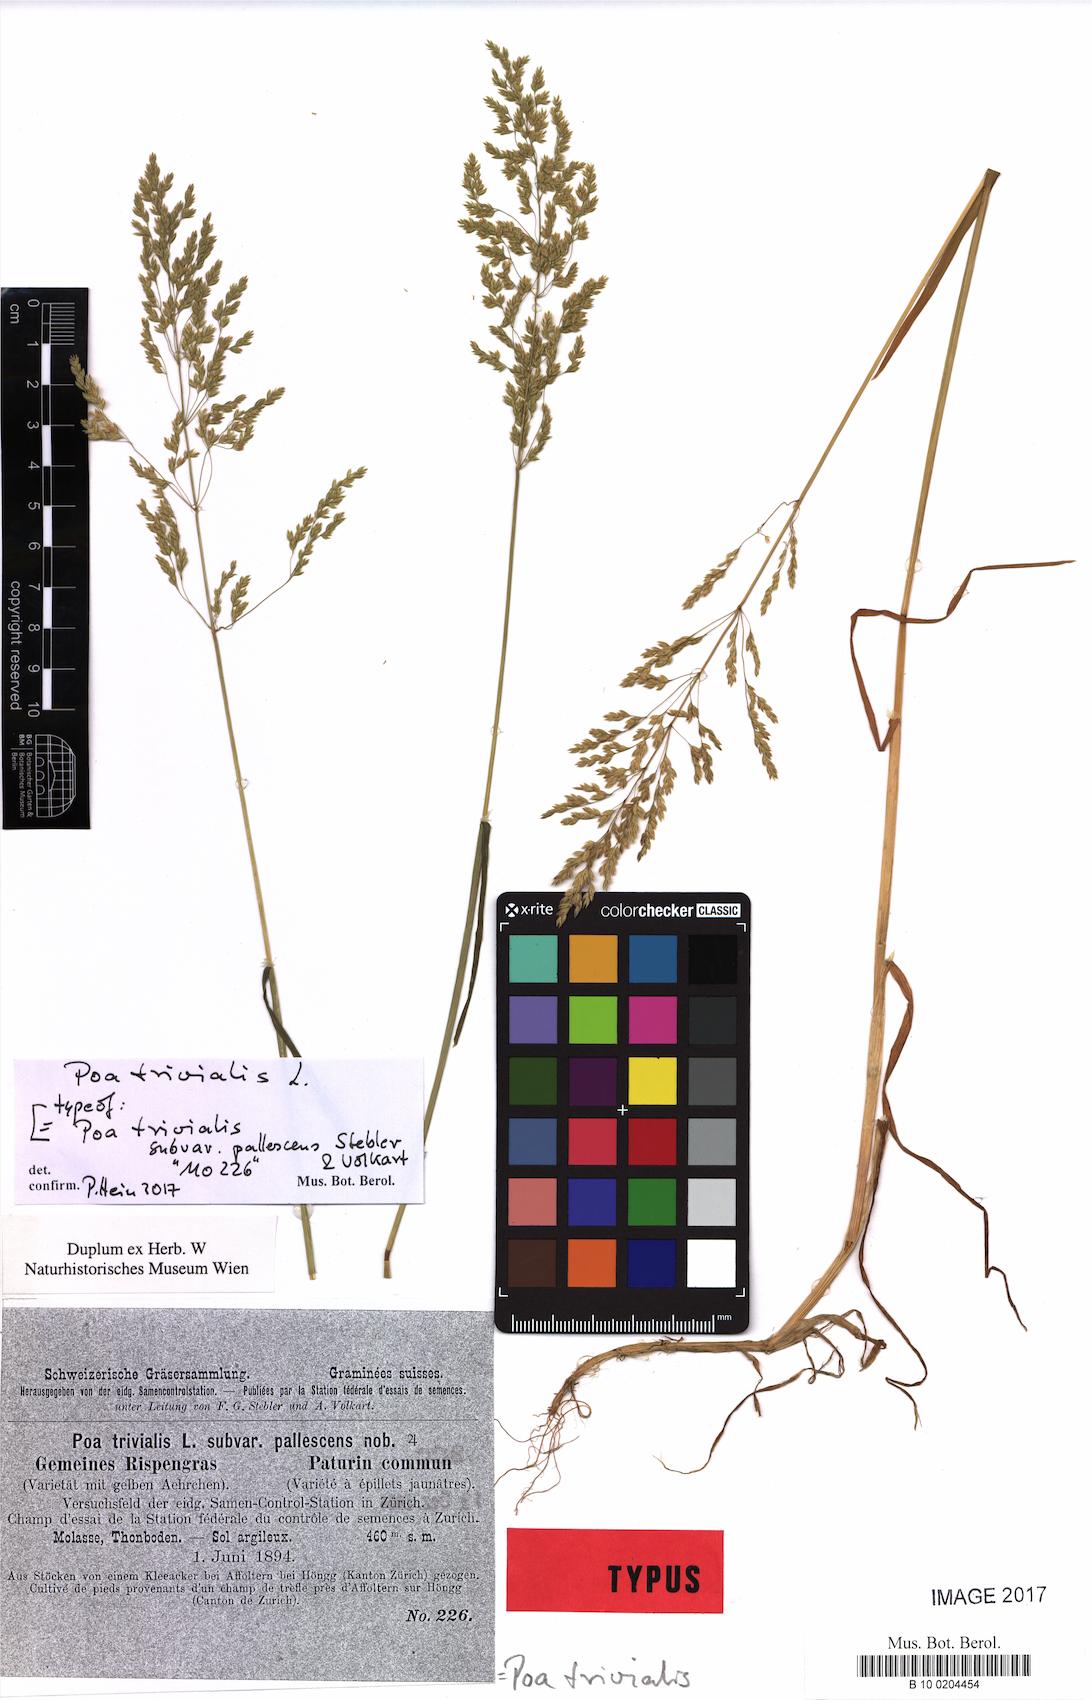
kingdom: Plantae
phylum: Tracheophyta
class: Liliopsida
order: Poales
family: Poaceae
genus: Poa
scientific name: Poa trivialis
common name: Rough bluegrass
